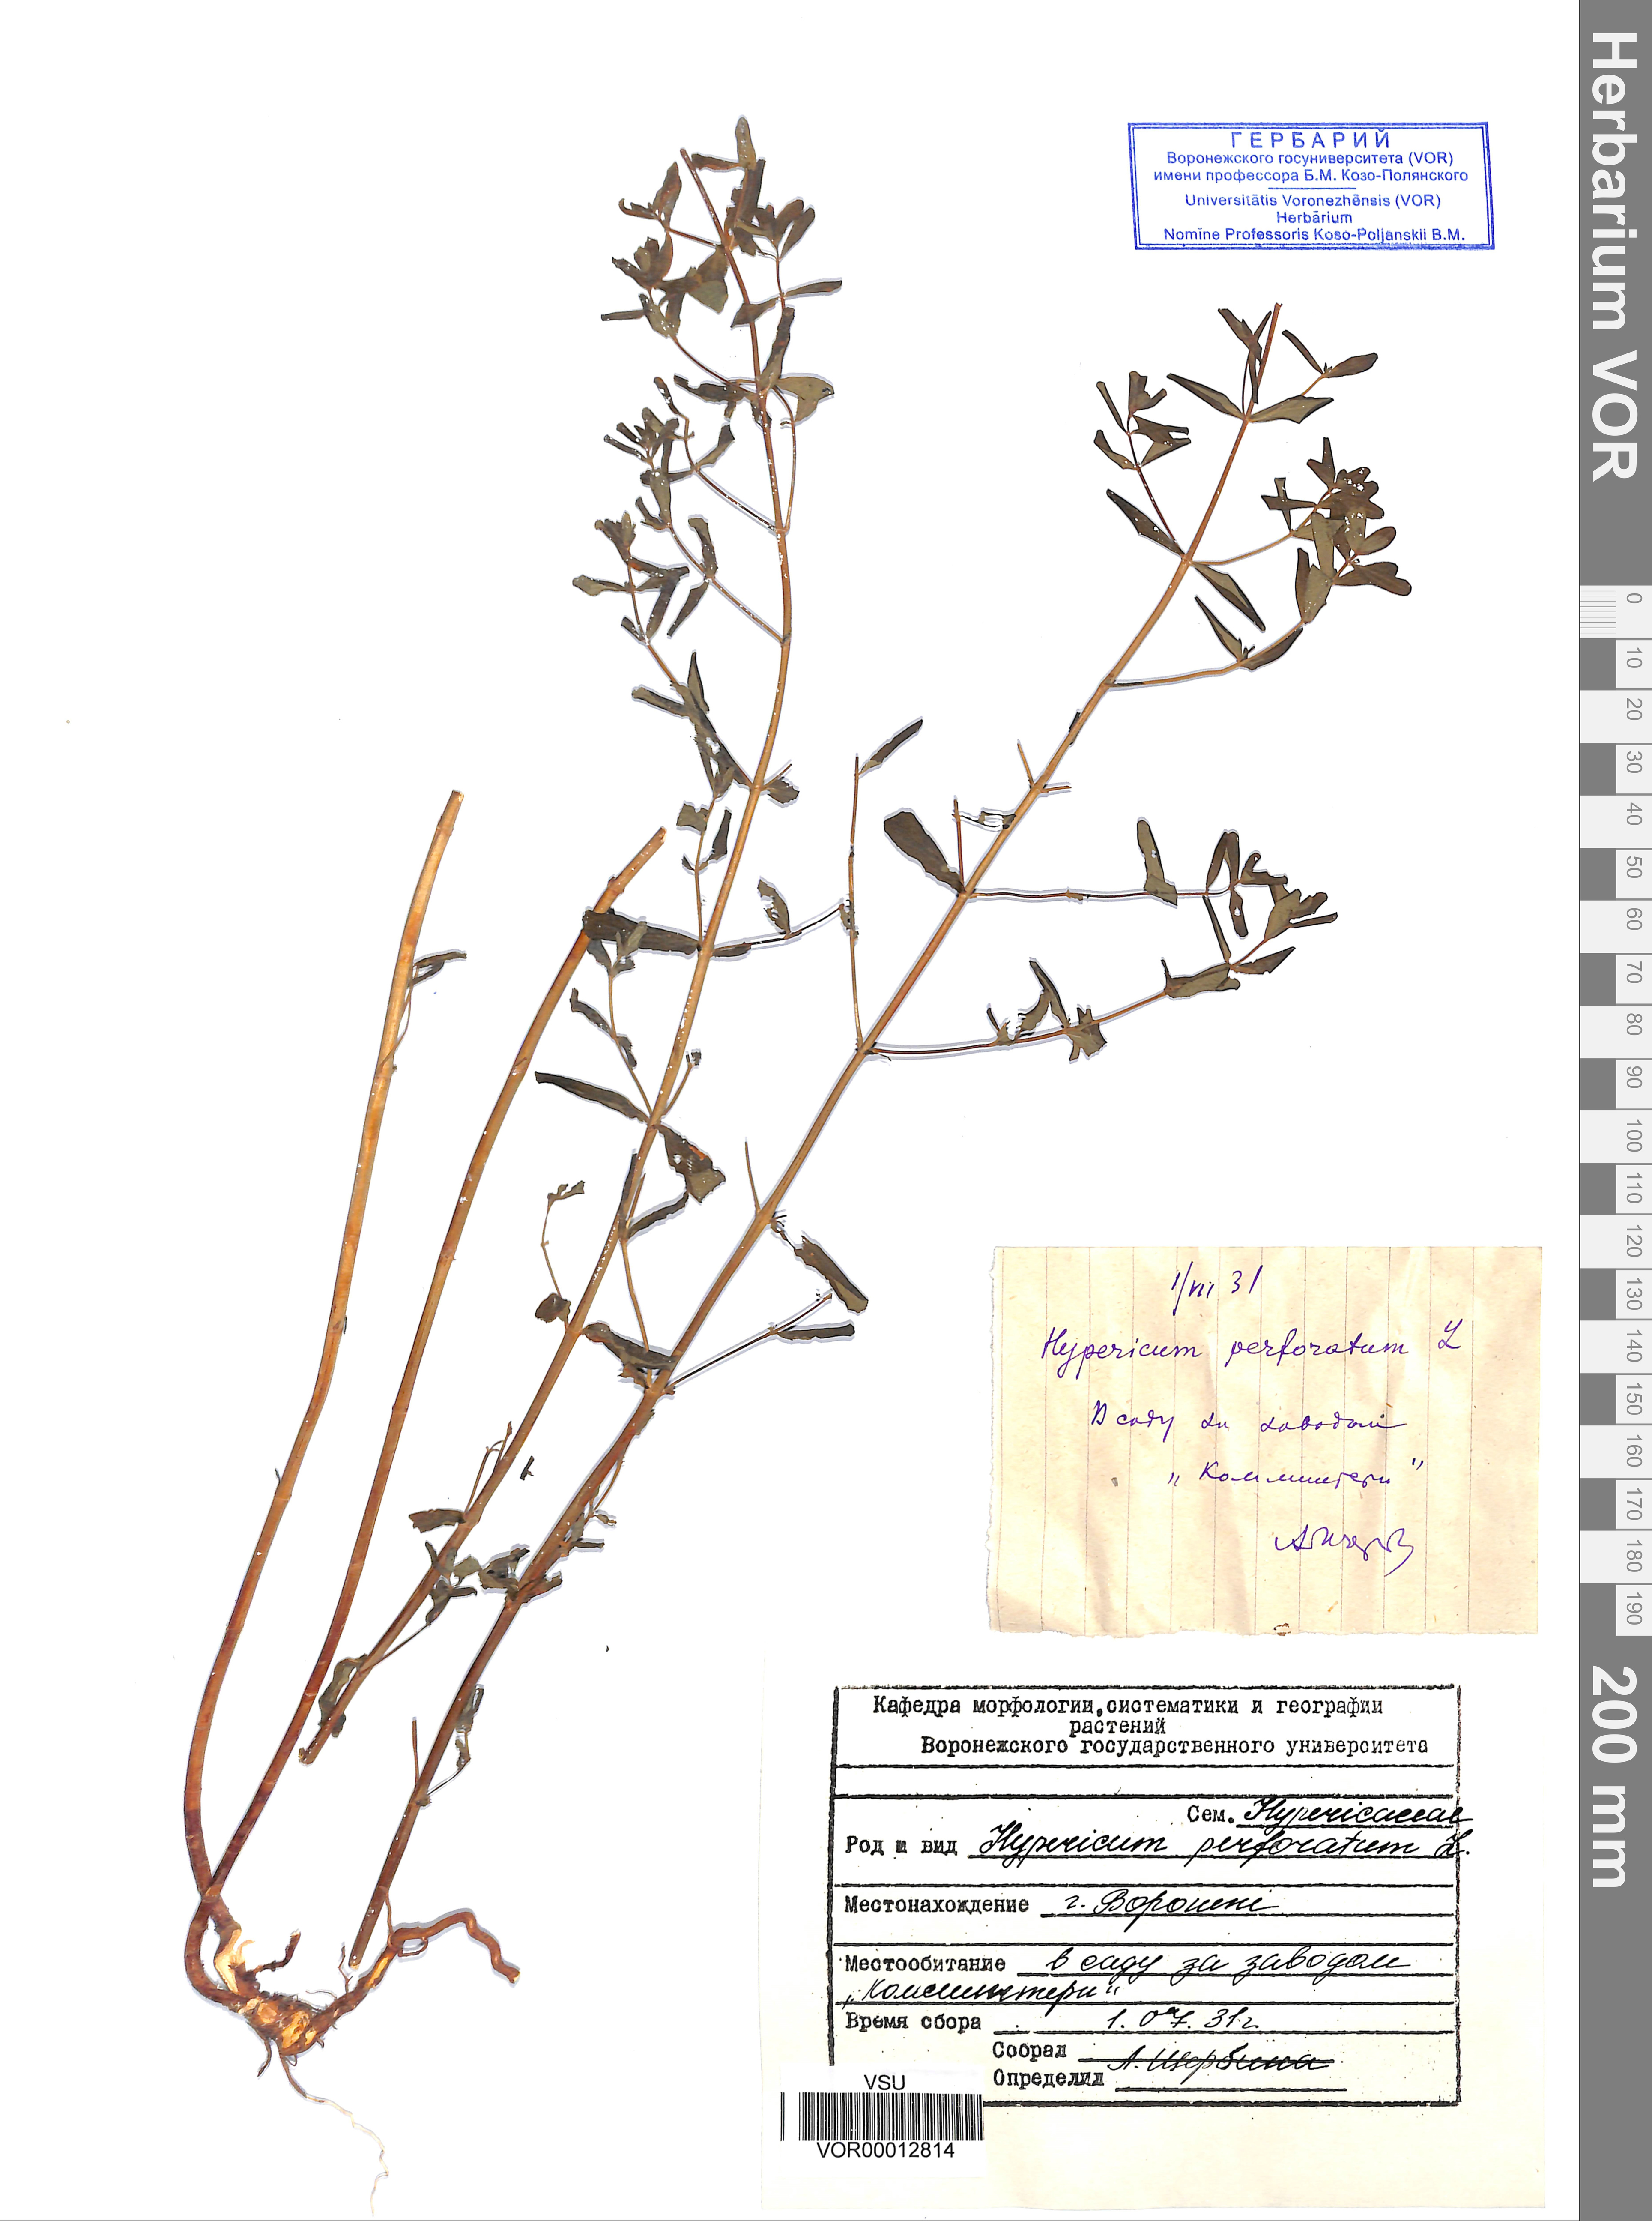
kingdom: Plantae
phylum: Tracheophyta
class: Magnoliopsida
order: Malpighiales
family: Hypericaceae
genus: Hypericum
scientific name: Hypericum perforatum
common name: Common st. johnswort
